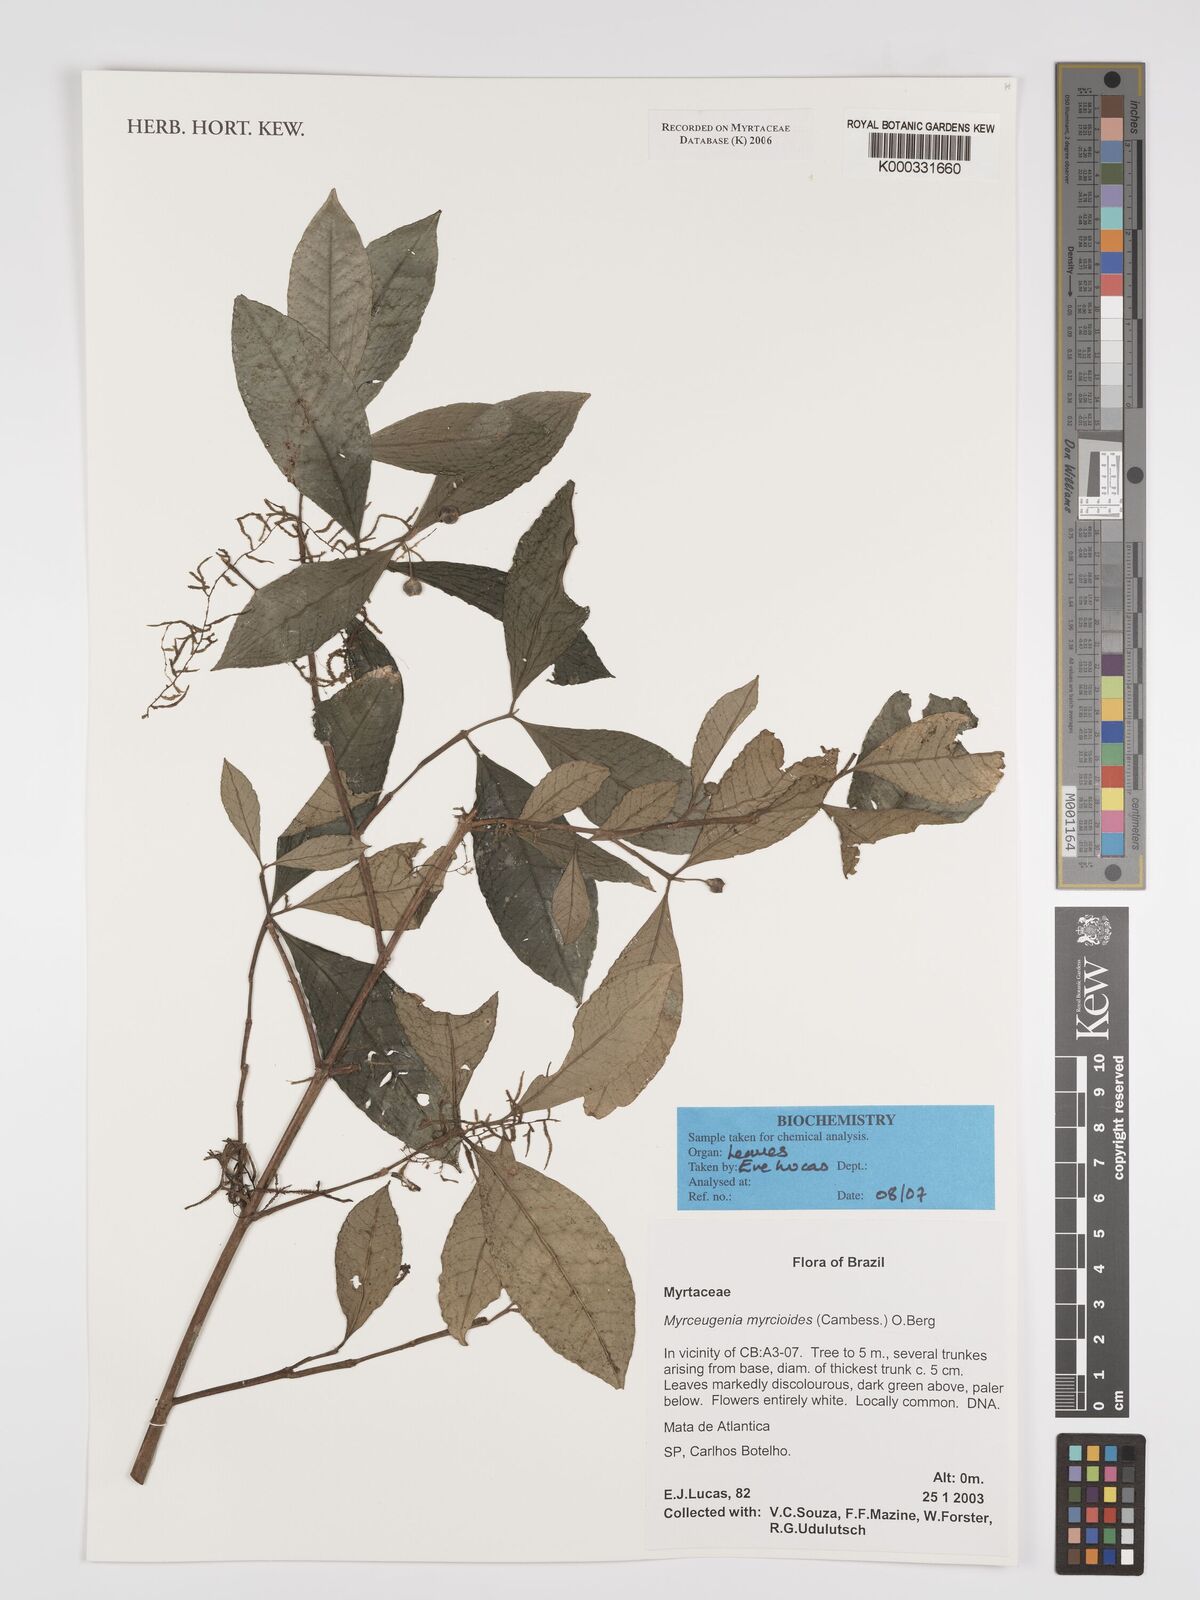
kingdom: Plantae
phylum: Tracheophyta
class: Magnoliopsida
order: Myrtales
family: Myrtaceae
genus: Myrceugenia
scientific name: Myrceugenia myrcioides
